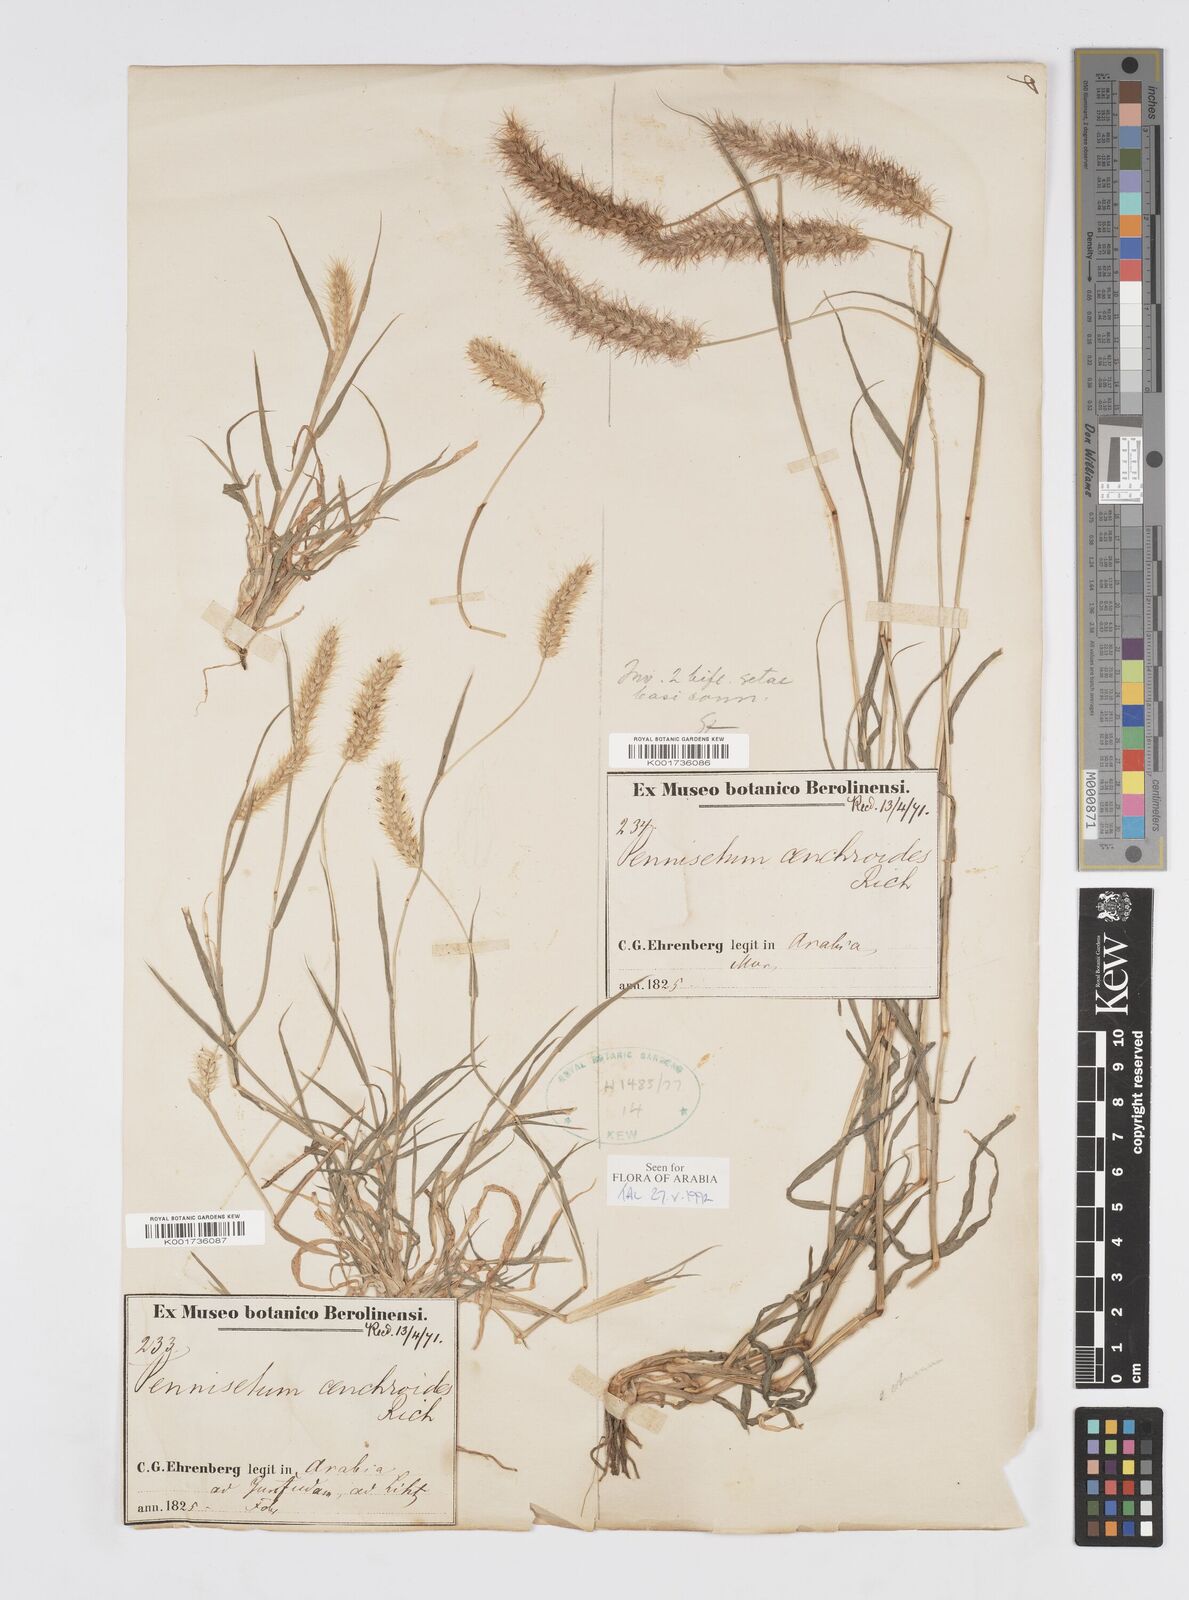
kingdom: Plantae
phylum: Tracheophyta
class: Liliopsida
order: Poales
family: Poaceae
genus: Cenchrus
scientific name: Cenchrus ciliaris
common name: Buffelgrass
